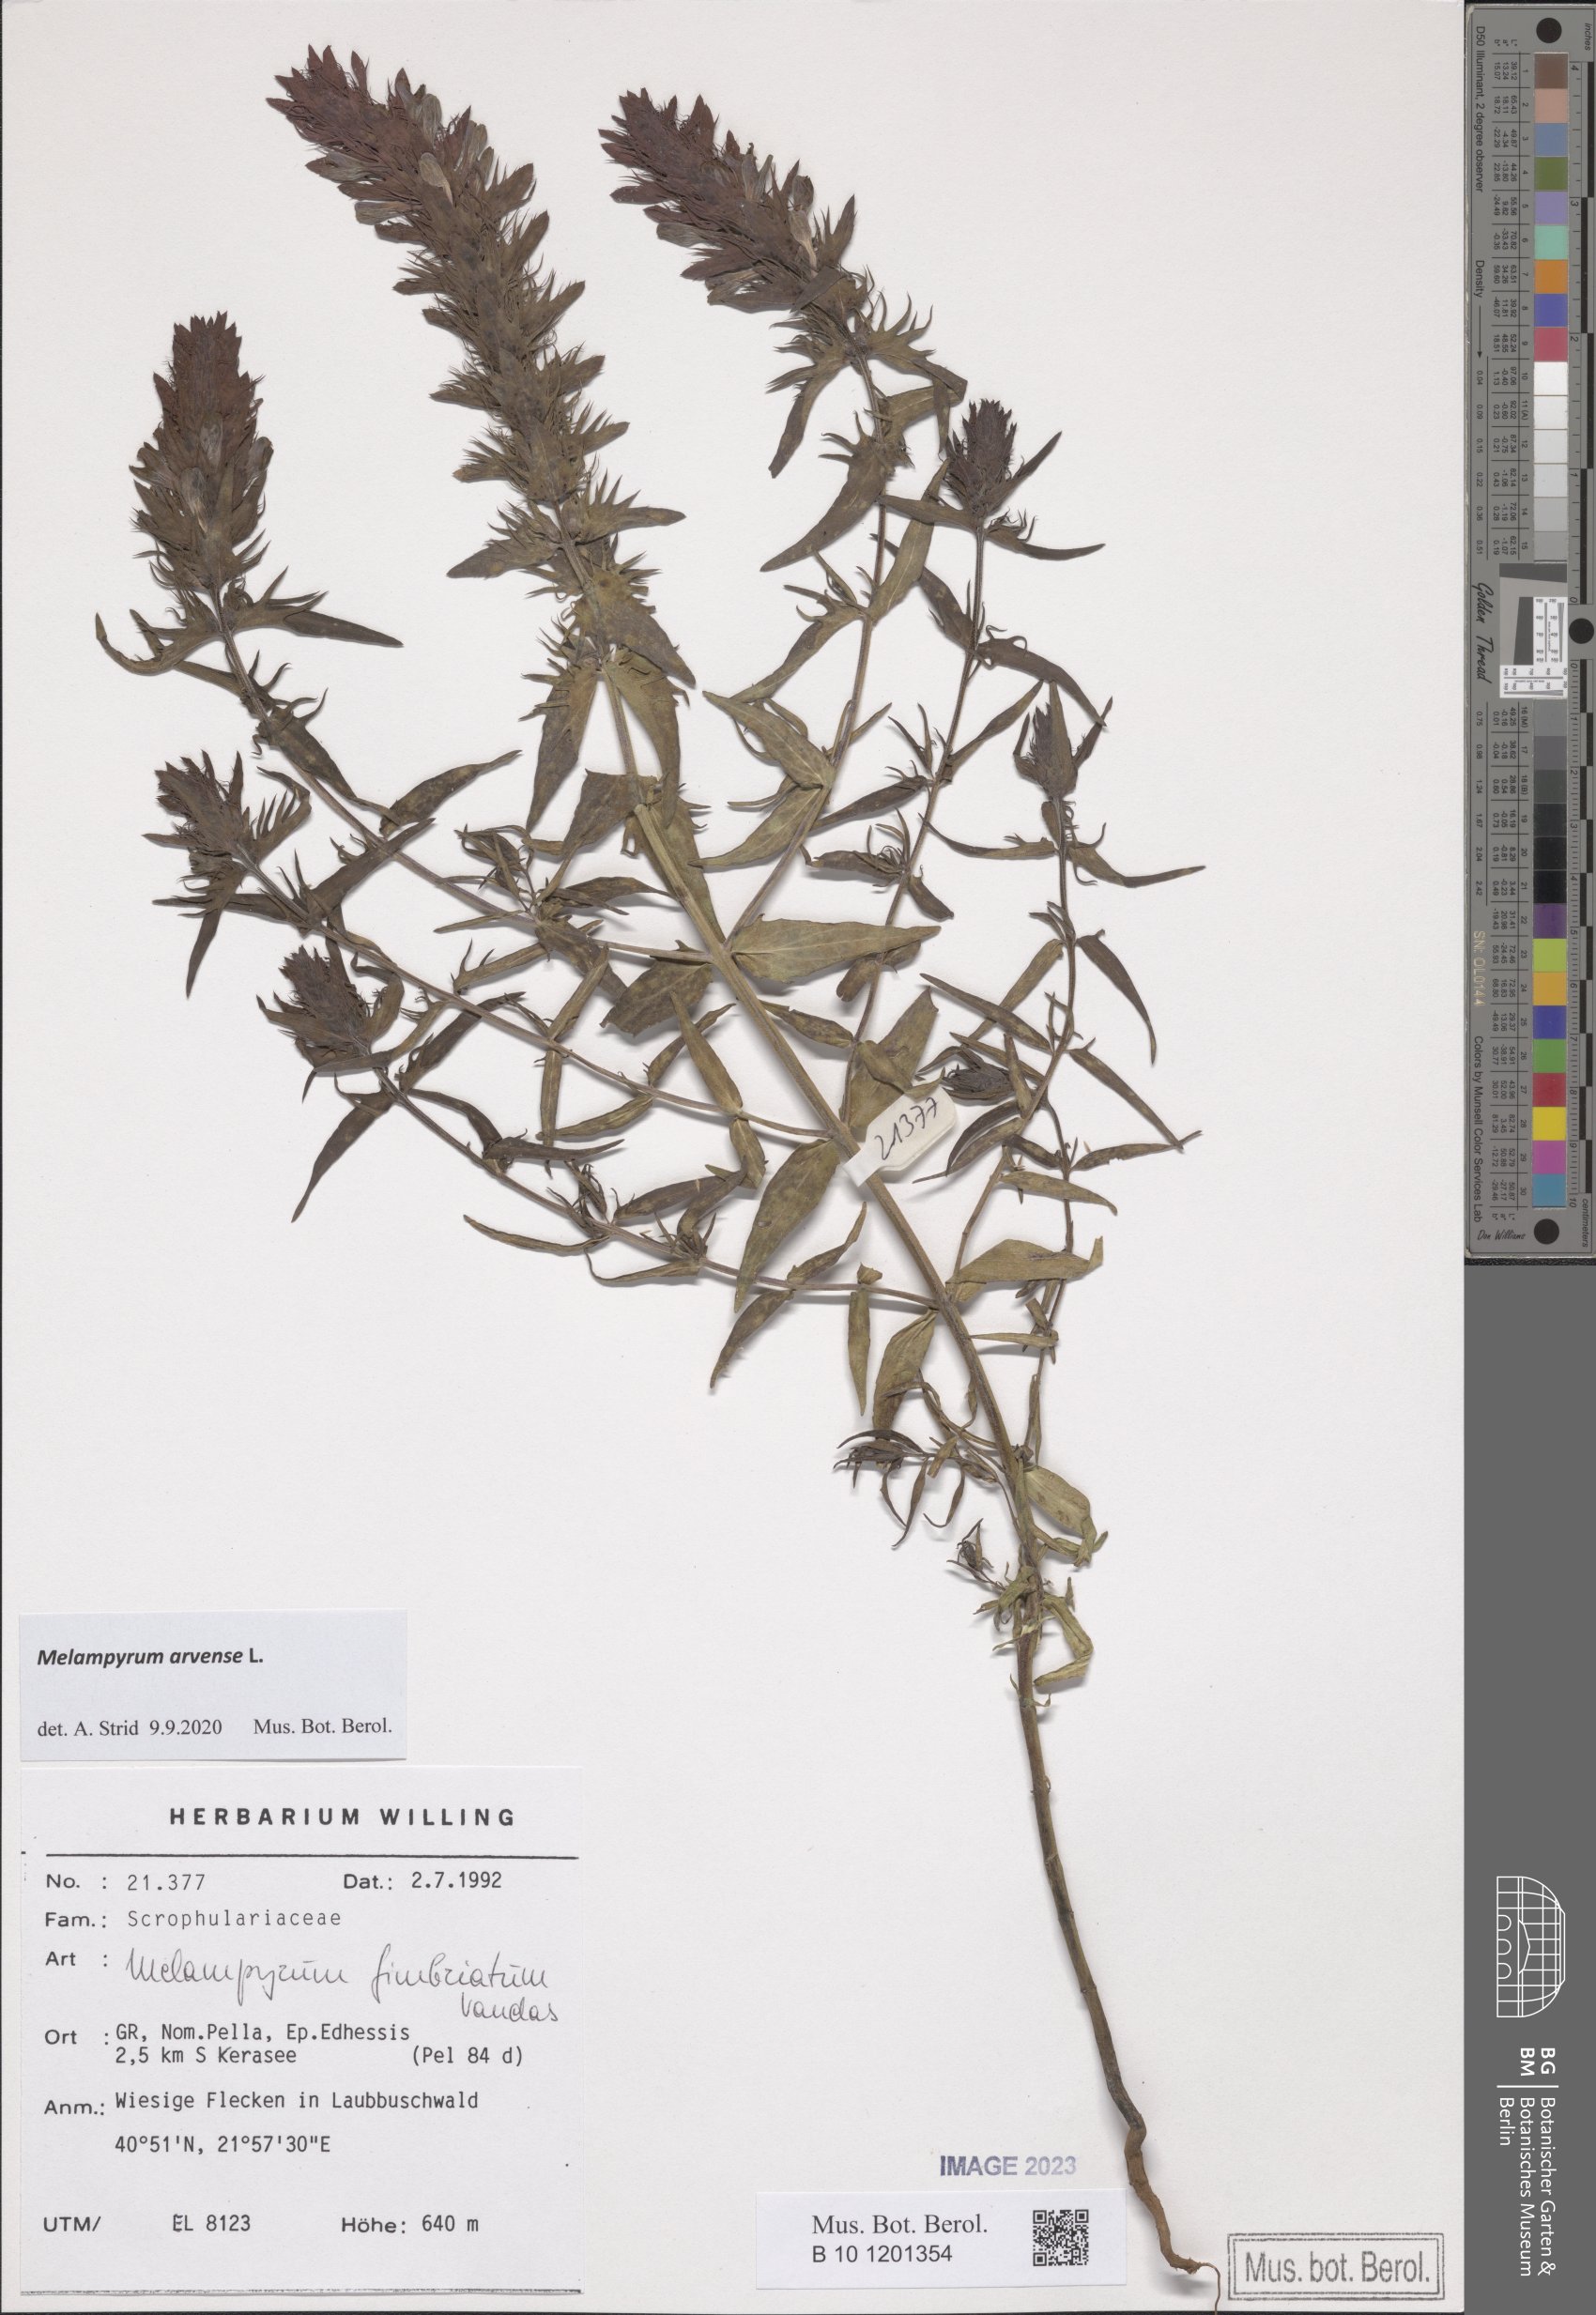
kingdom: Plantae
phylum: Tracheophyta
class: Magnoliopsida
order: Lamiales
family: Orobanchaceae
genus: Melampyrum
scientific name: Melampyrum arvense
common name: Field cow-wheat
